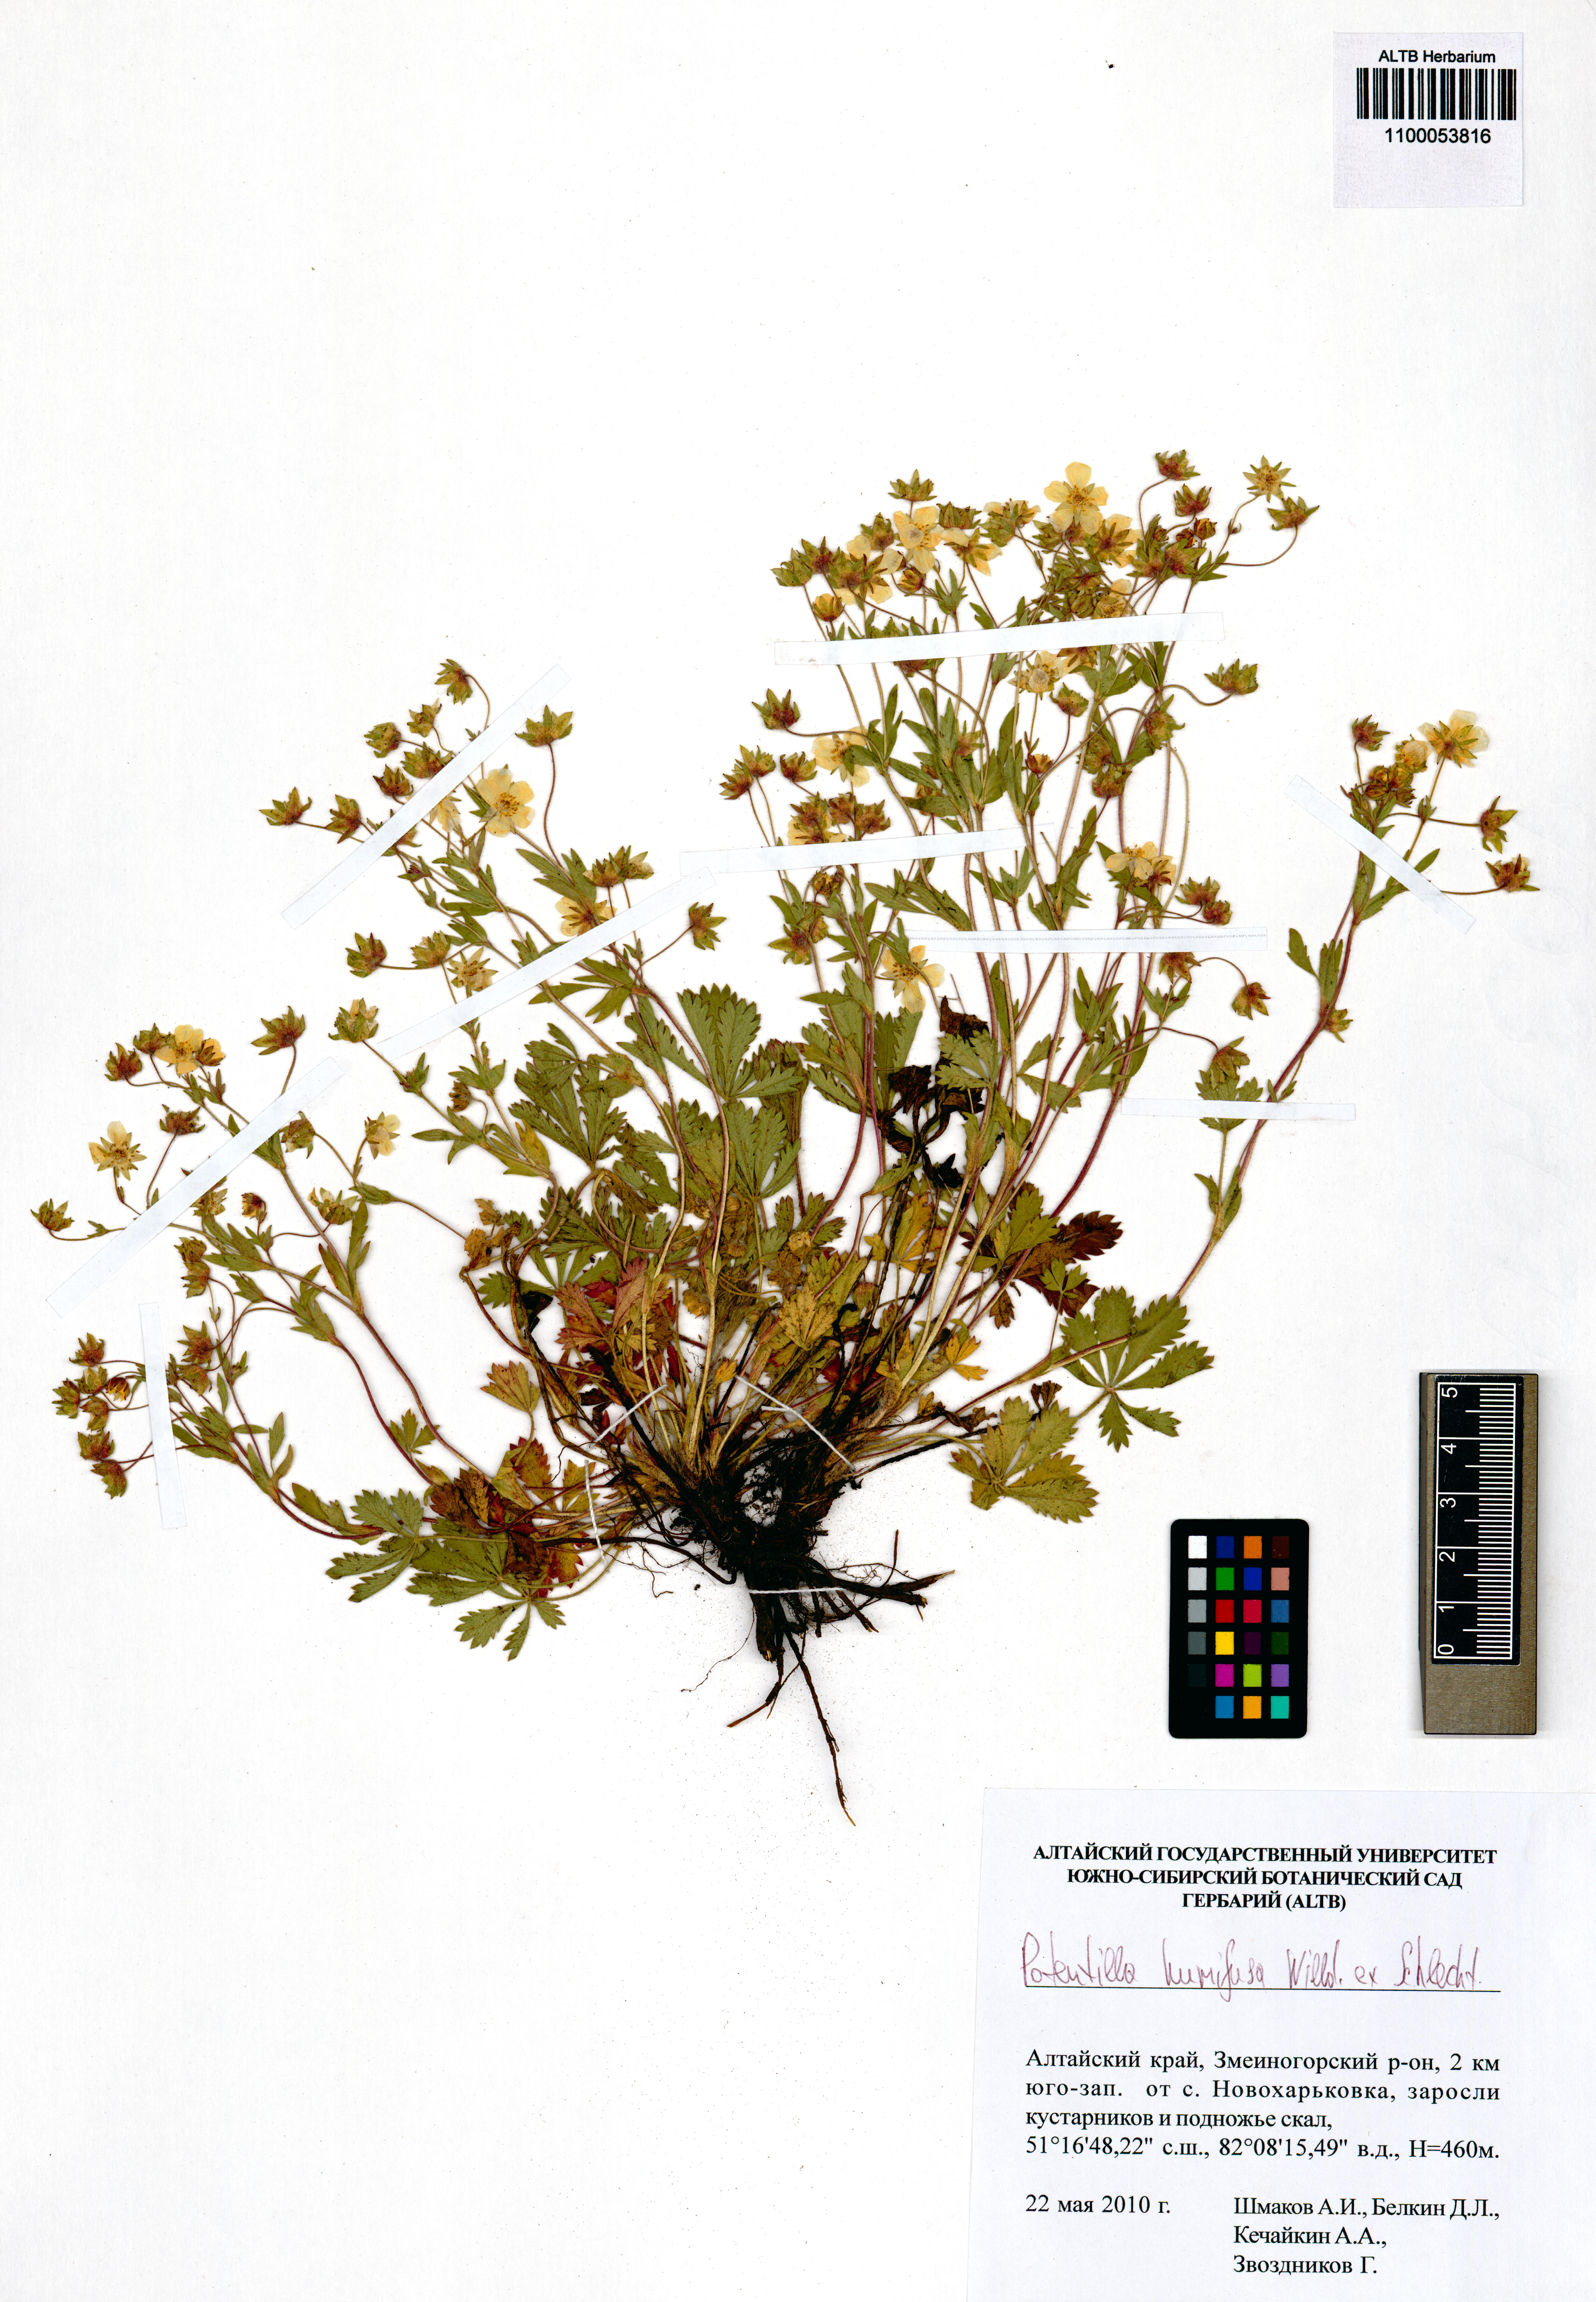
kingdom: Plantae
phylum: Tracheophyta
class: Magnoliopsida
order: Rosales
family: Rosaceae
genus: Potentilla
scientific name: Potentilla humifusa
